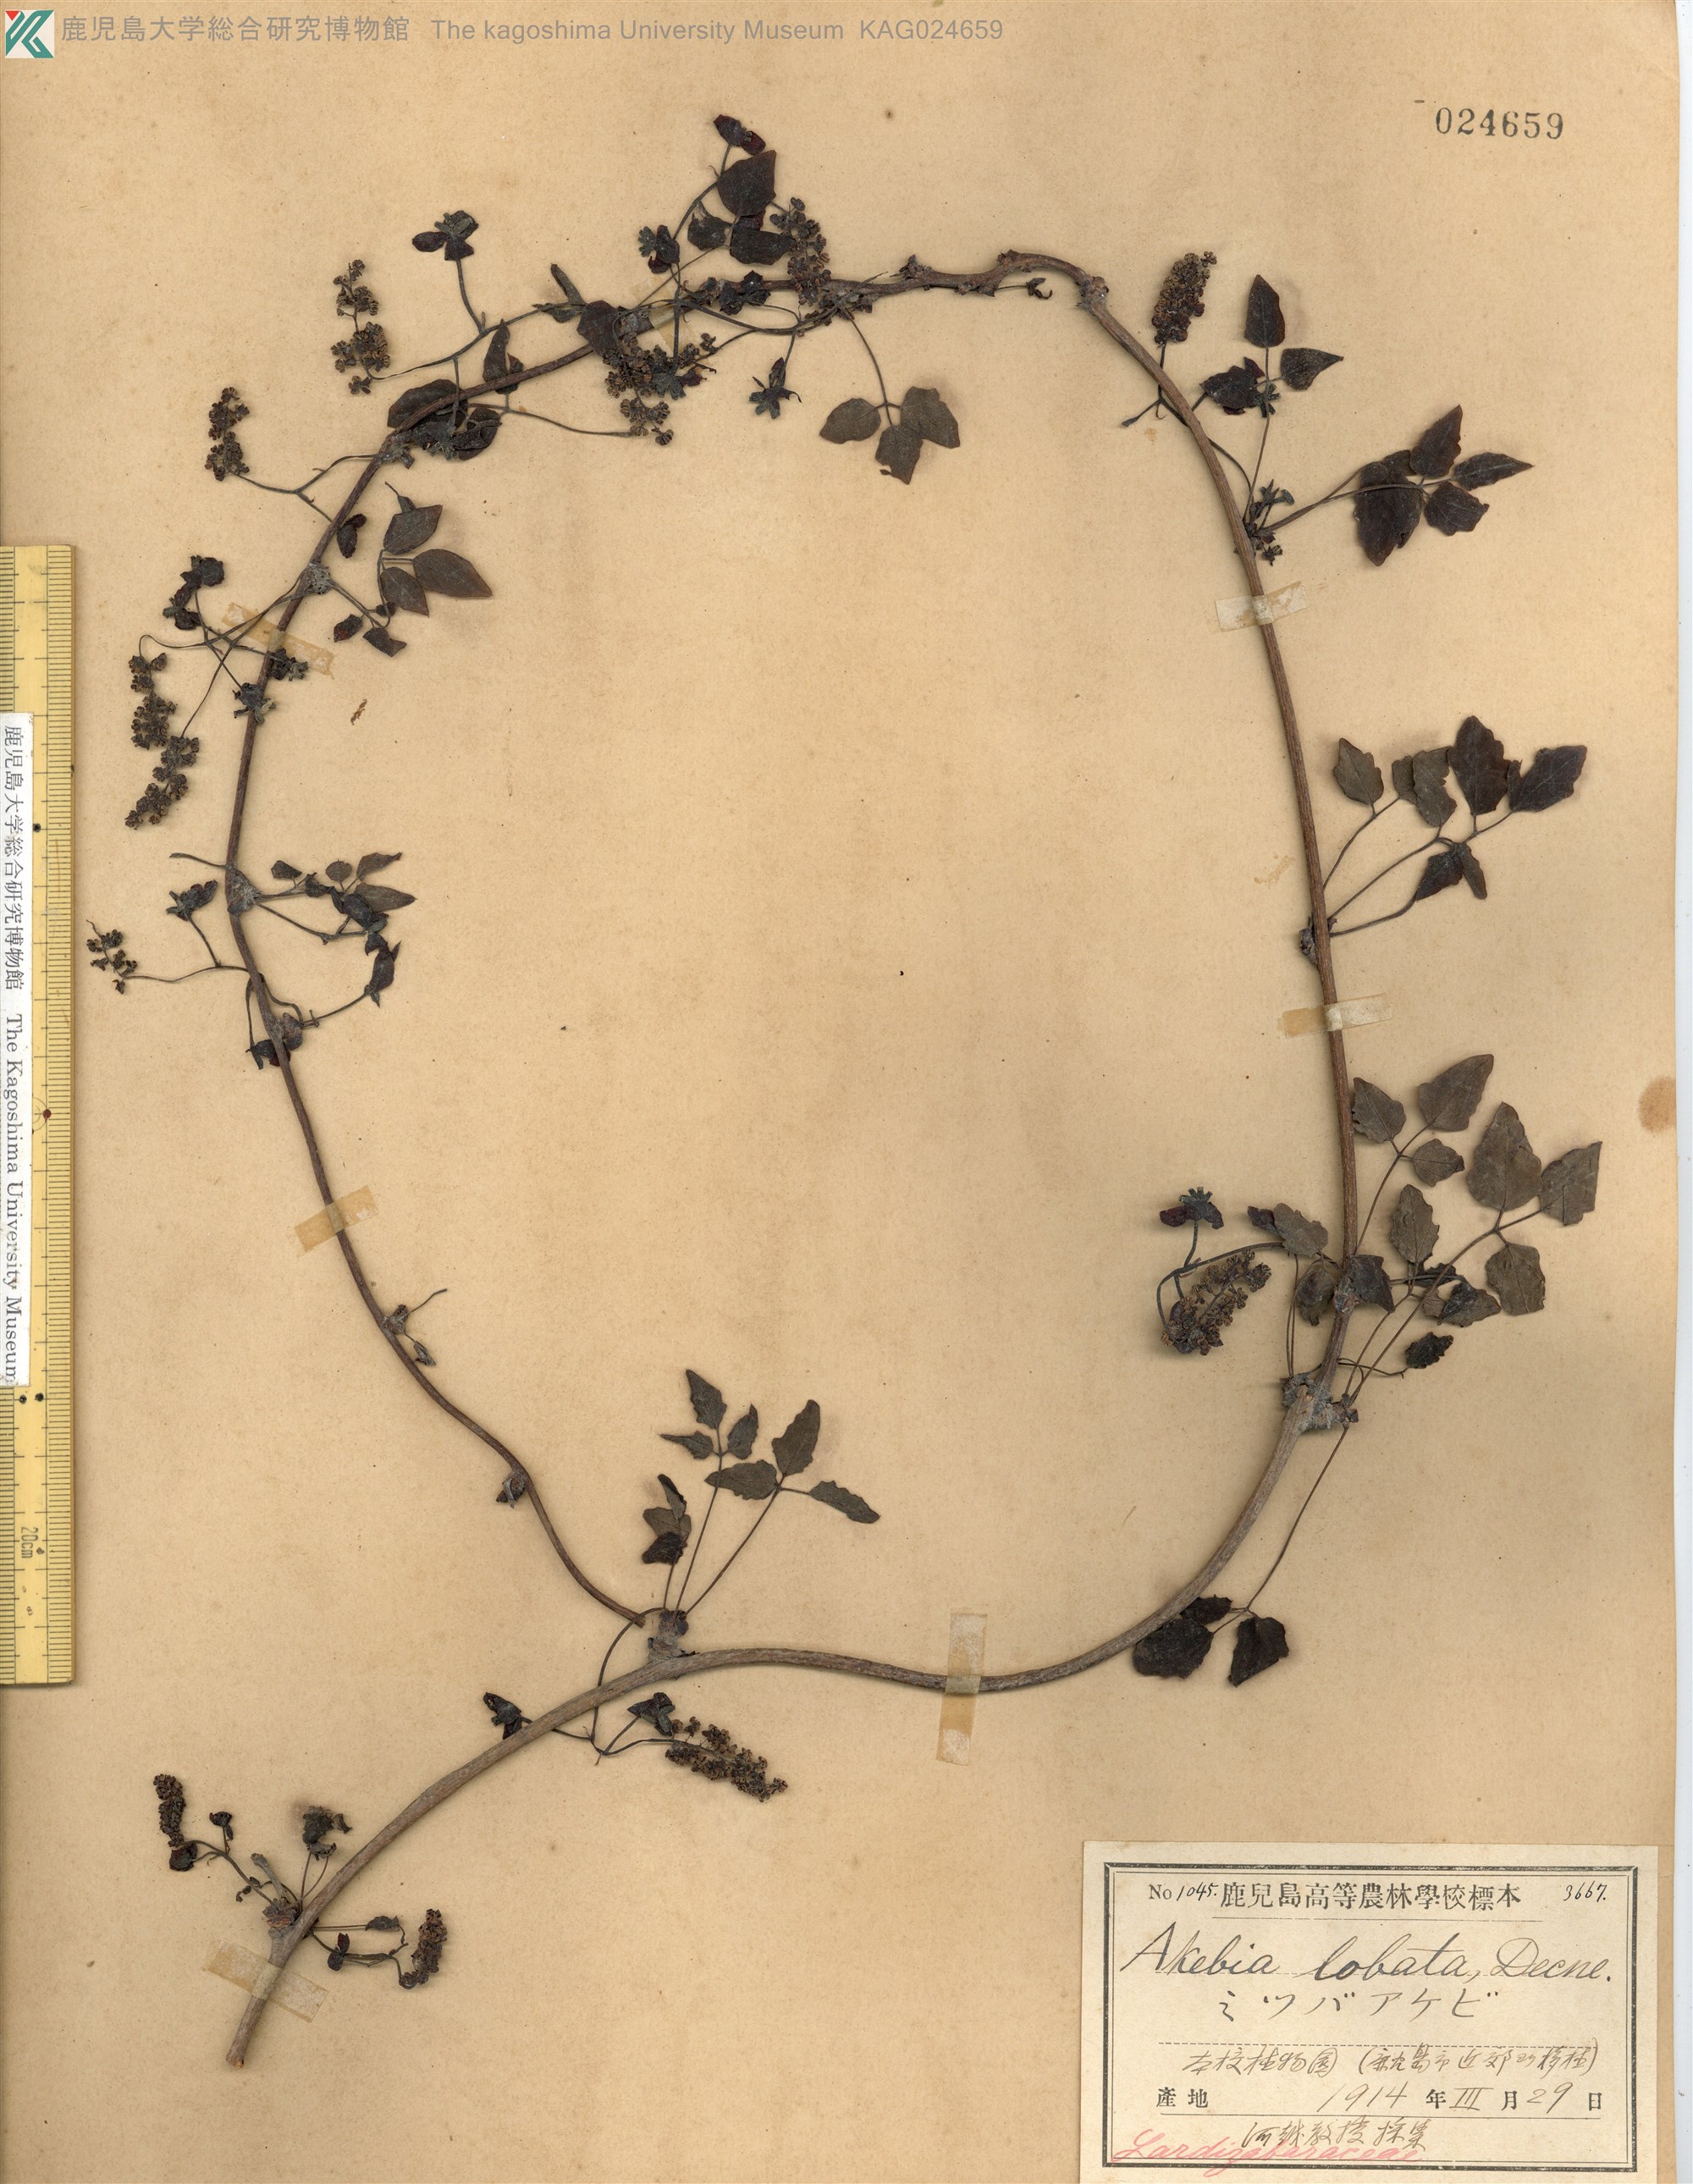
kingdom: Plantae
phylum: Tracheophyta
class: Magnoliopsida
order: Ranunculales
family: Lardizabalaceae
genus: Akebia
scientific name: Akebia trifoliata
